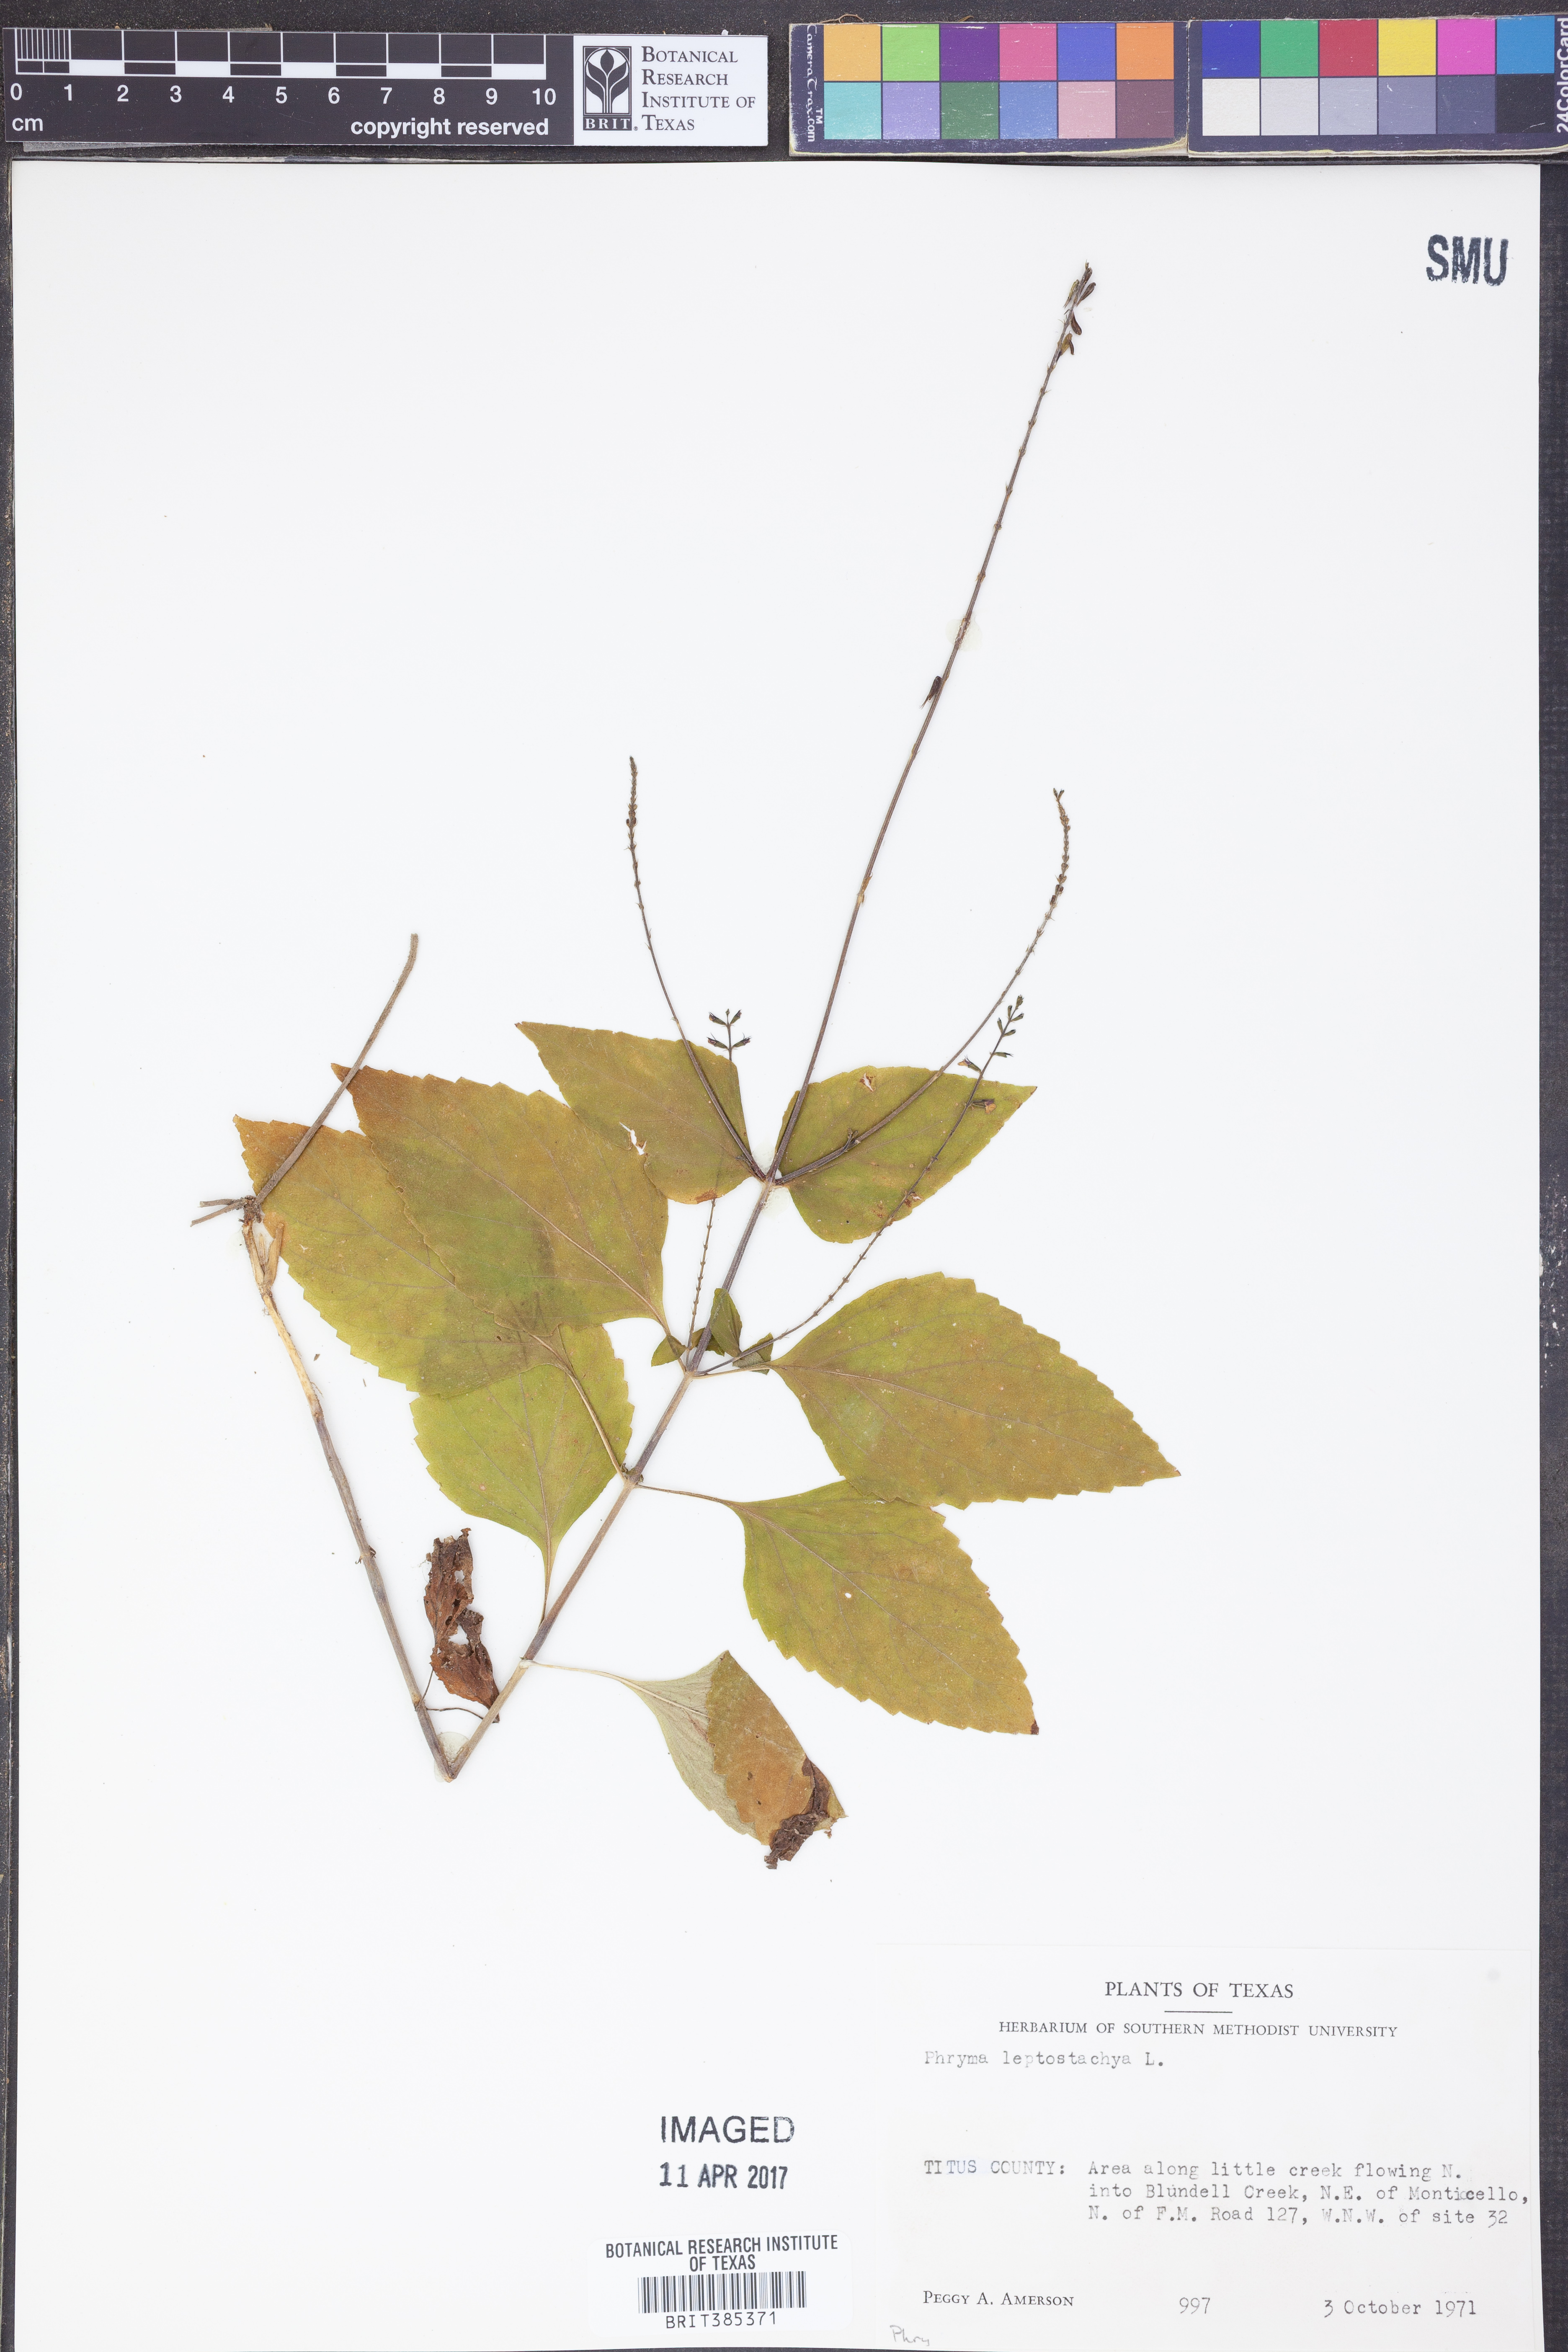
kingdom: Plantae
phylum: Tracheophyta
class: Magnoliopsida
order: Lamiales
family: Phrymaceae
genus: Phryma
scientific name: Phryma leptostachya
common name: American lopseed
